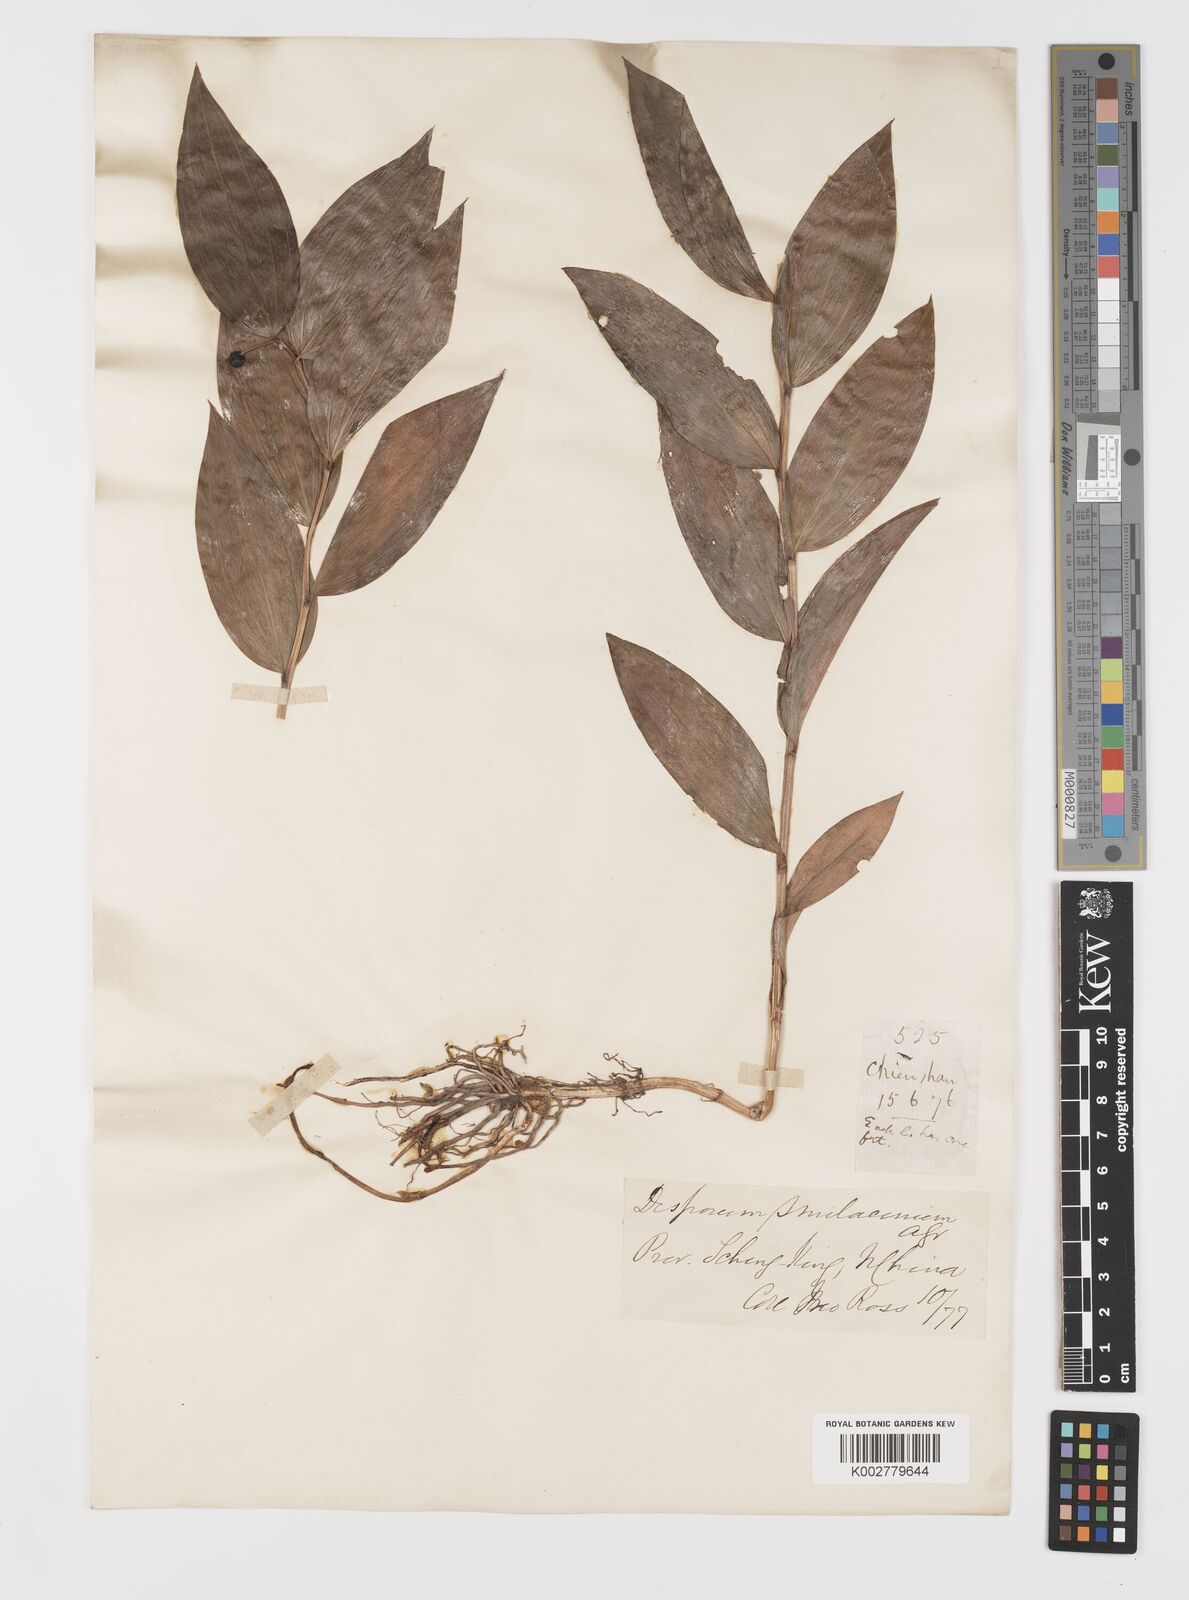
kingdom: Plantae
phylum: Tracheophyta
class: Liliopsida
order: Liliales
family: Colchicaceae
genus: Disporum
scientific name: Disporum viridescens
